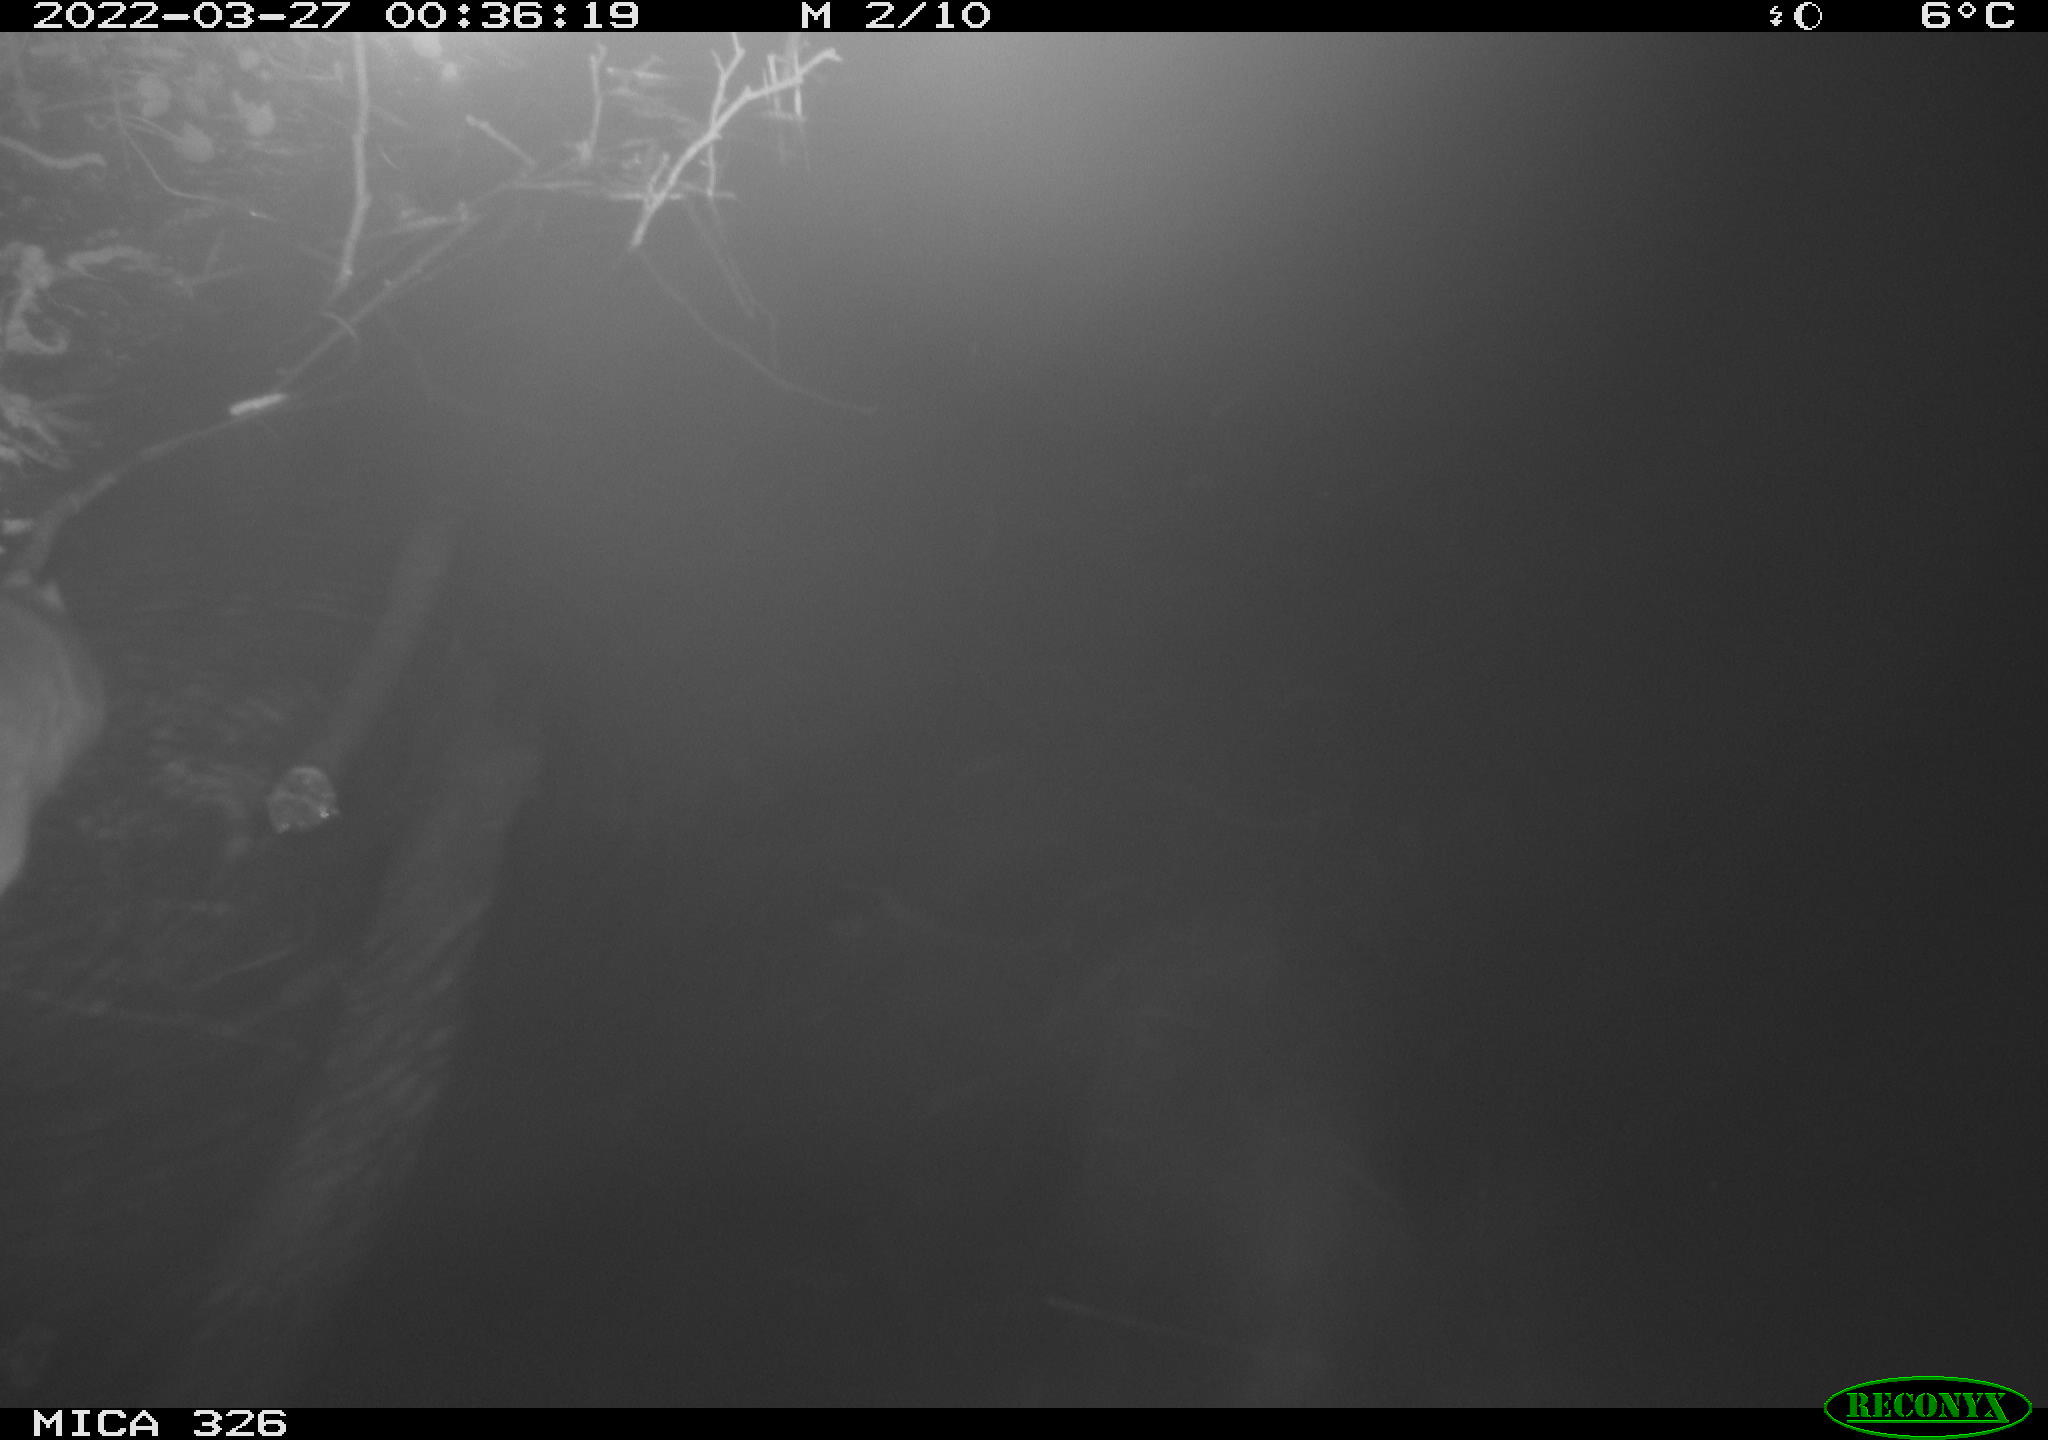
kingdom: Animalia
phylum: Chordata
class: Mammalia
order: Rodentia
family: Muridae
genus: Rattus
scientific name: Rattus norvegicus
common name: Brown rat
